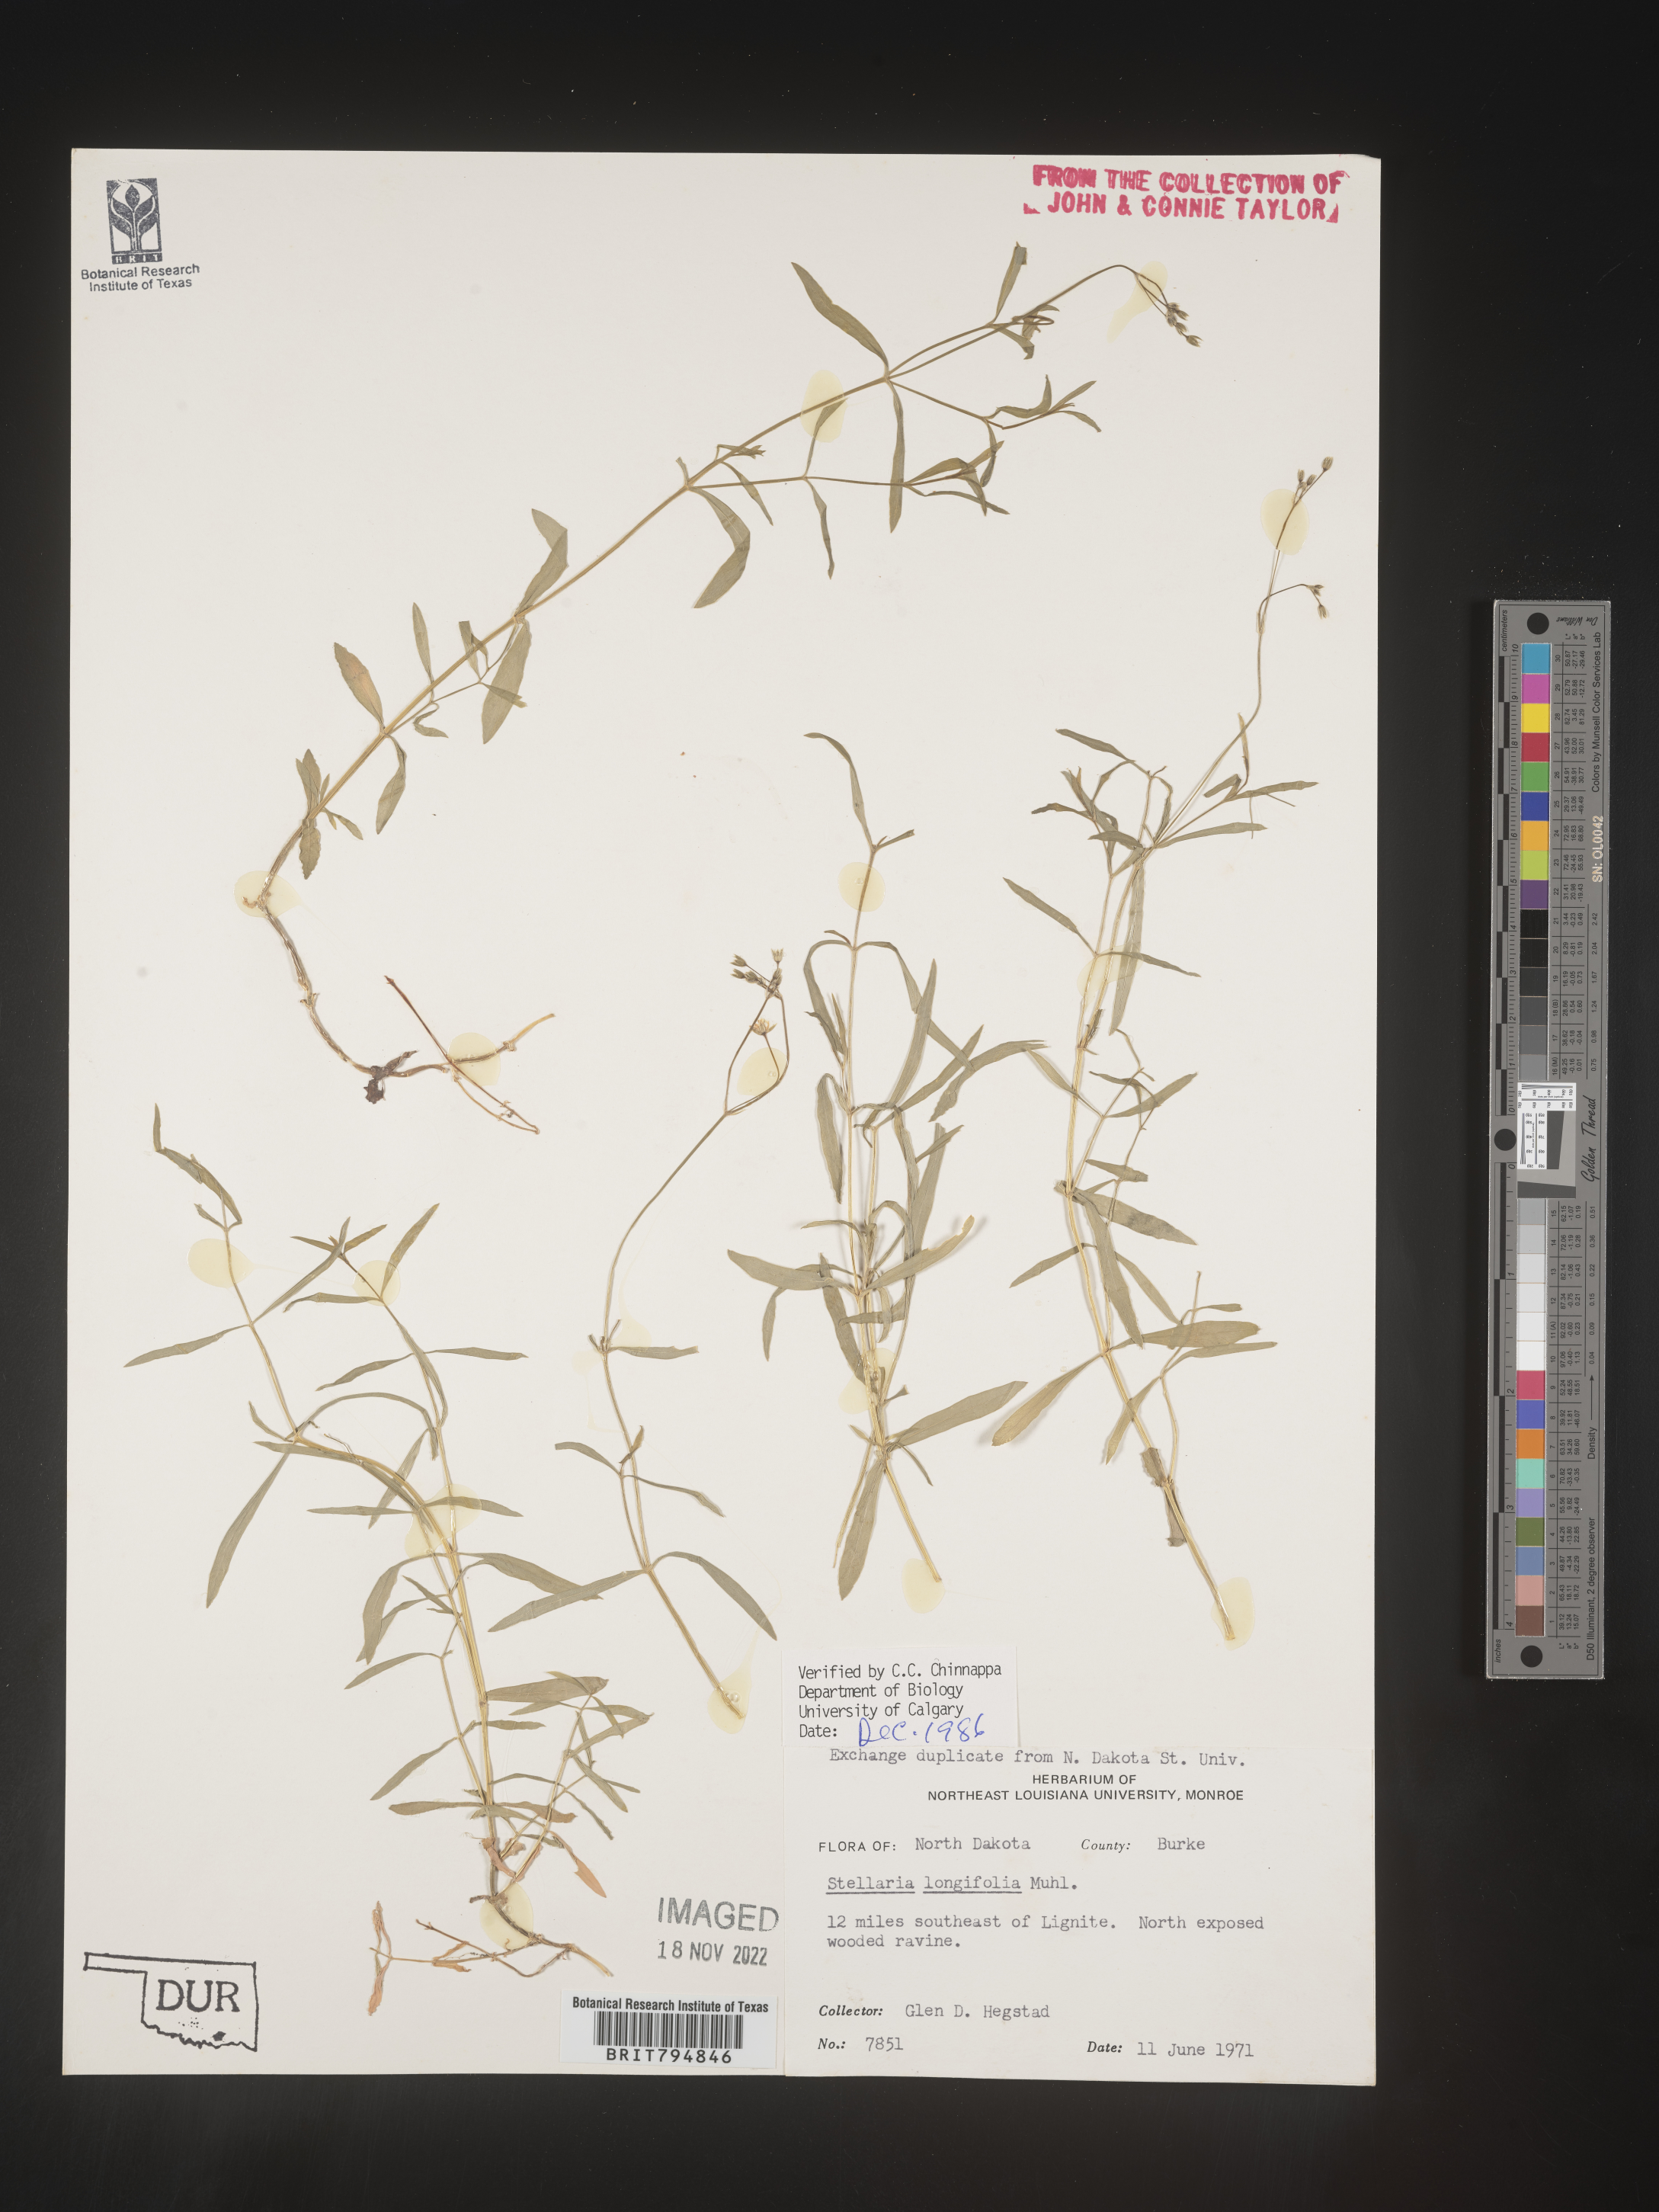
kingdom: Plantae
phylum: Tracheophyta
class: Magnoliopsida
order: Caryophyllales
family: Caryophyllaceae
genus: Stellaria
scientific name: Stellaria longifolia
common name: Long-leaved chickweed
